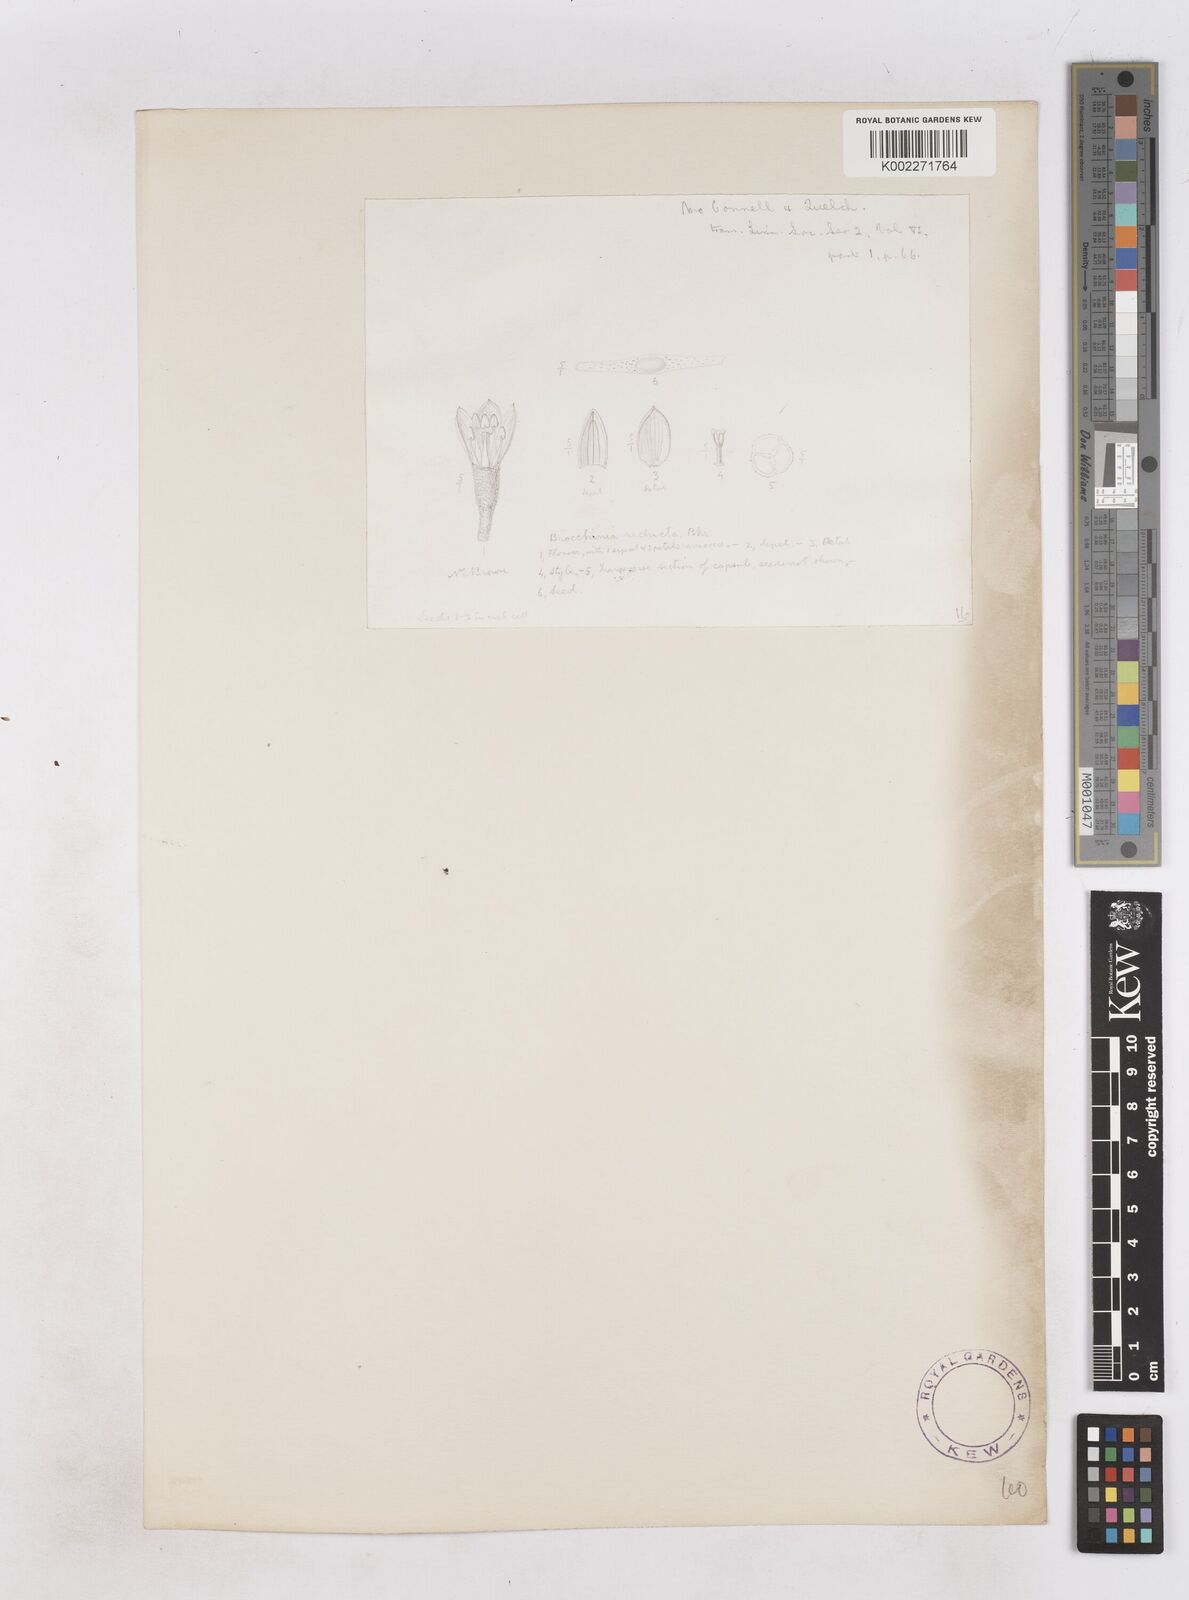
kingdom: Plantae
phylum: Tracheophyta
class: Liliopsida
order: Poales
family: Bromeliaceae
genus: Brocchinia
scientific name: Brocchinia reducta
